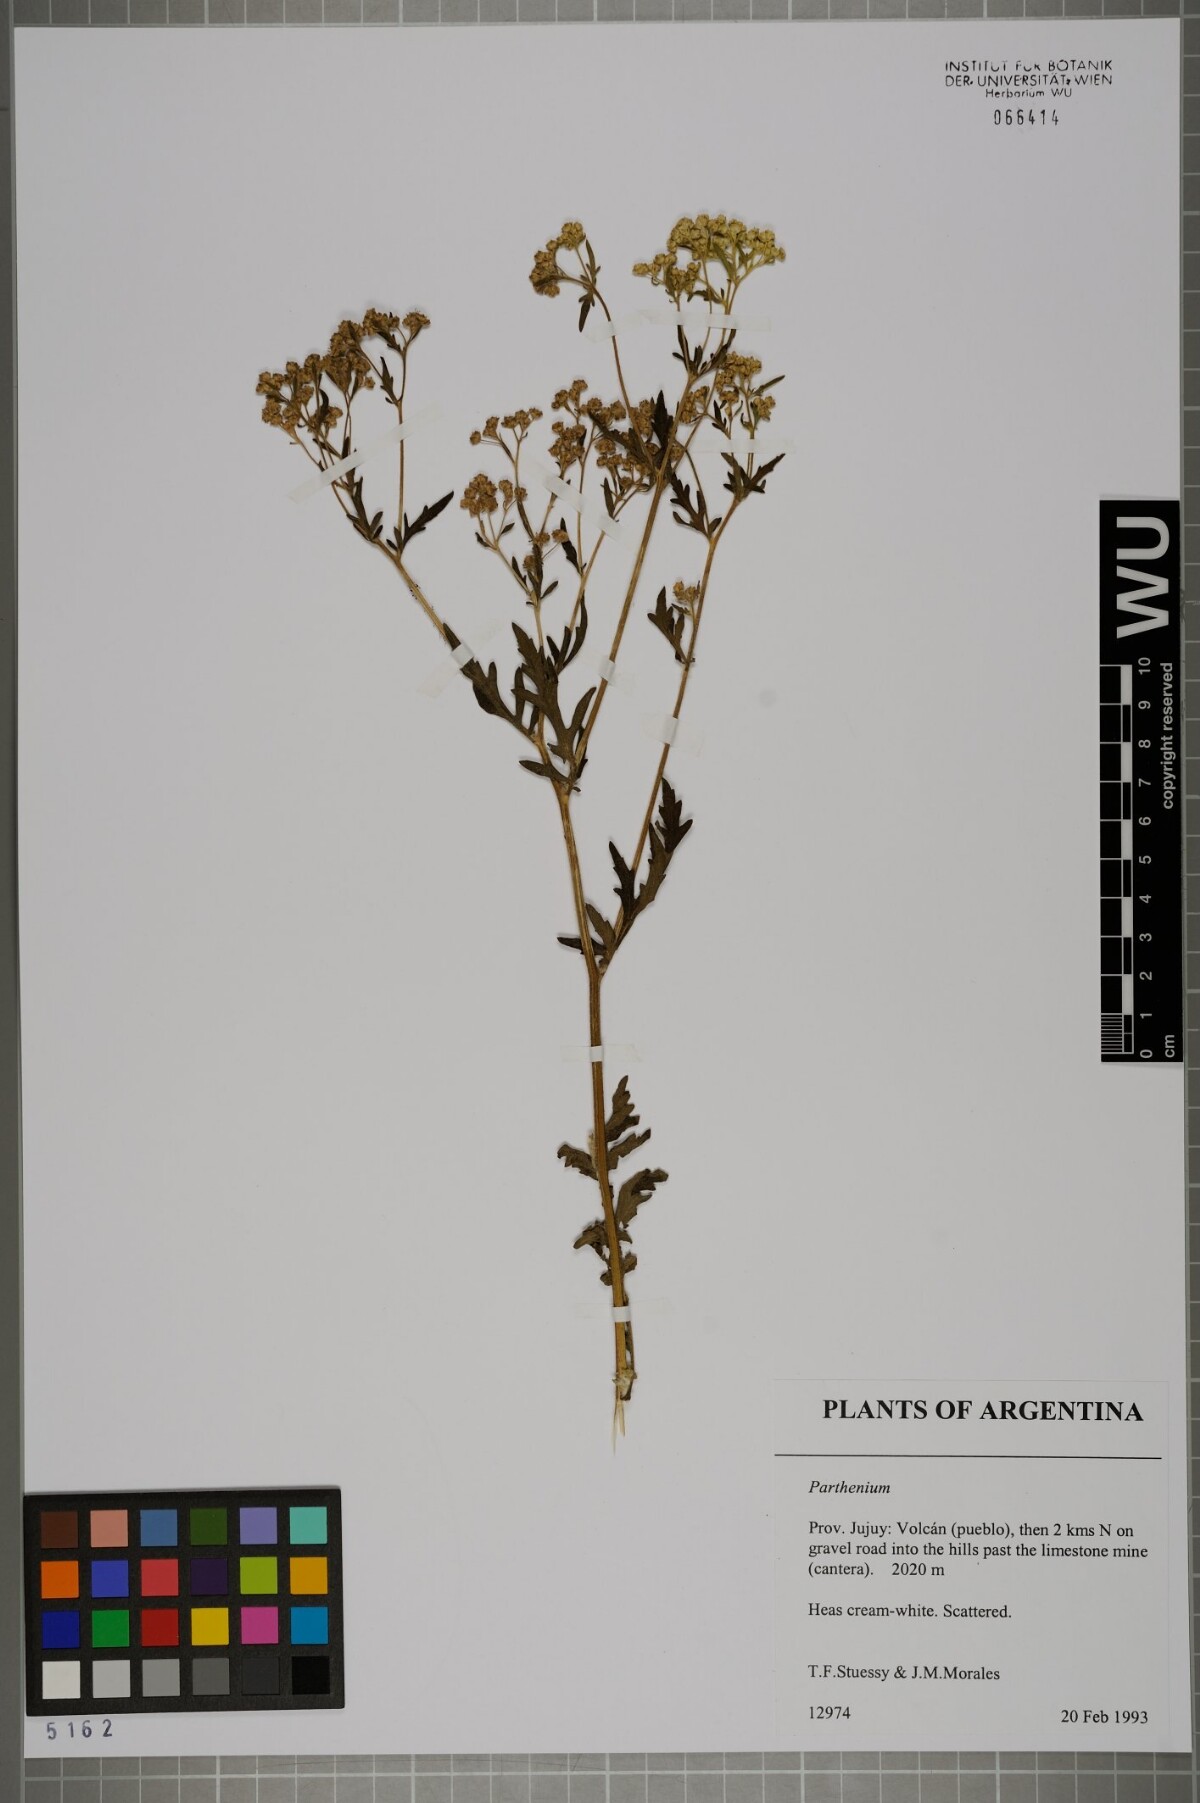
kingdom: Plantae
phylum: Tracheophyta
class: Magnoliopsida
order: Asterales
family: Asteraceae
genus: Parthenium
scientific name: Parthenium
